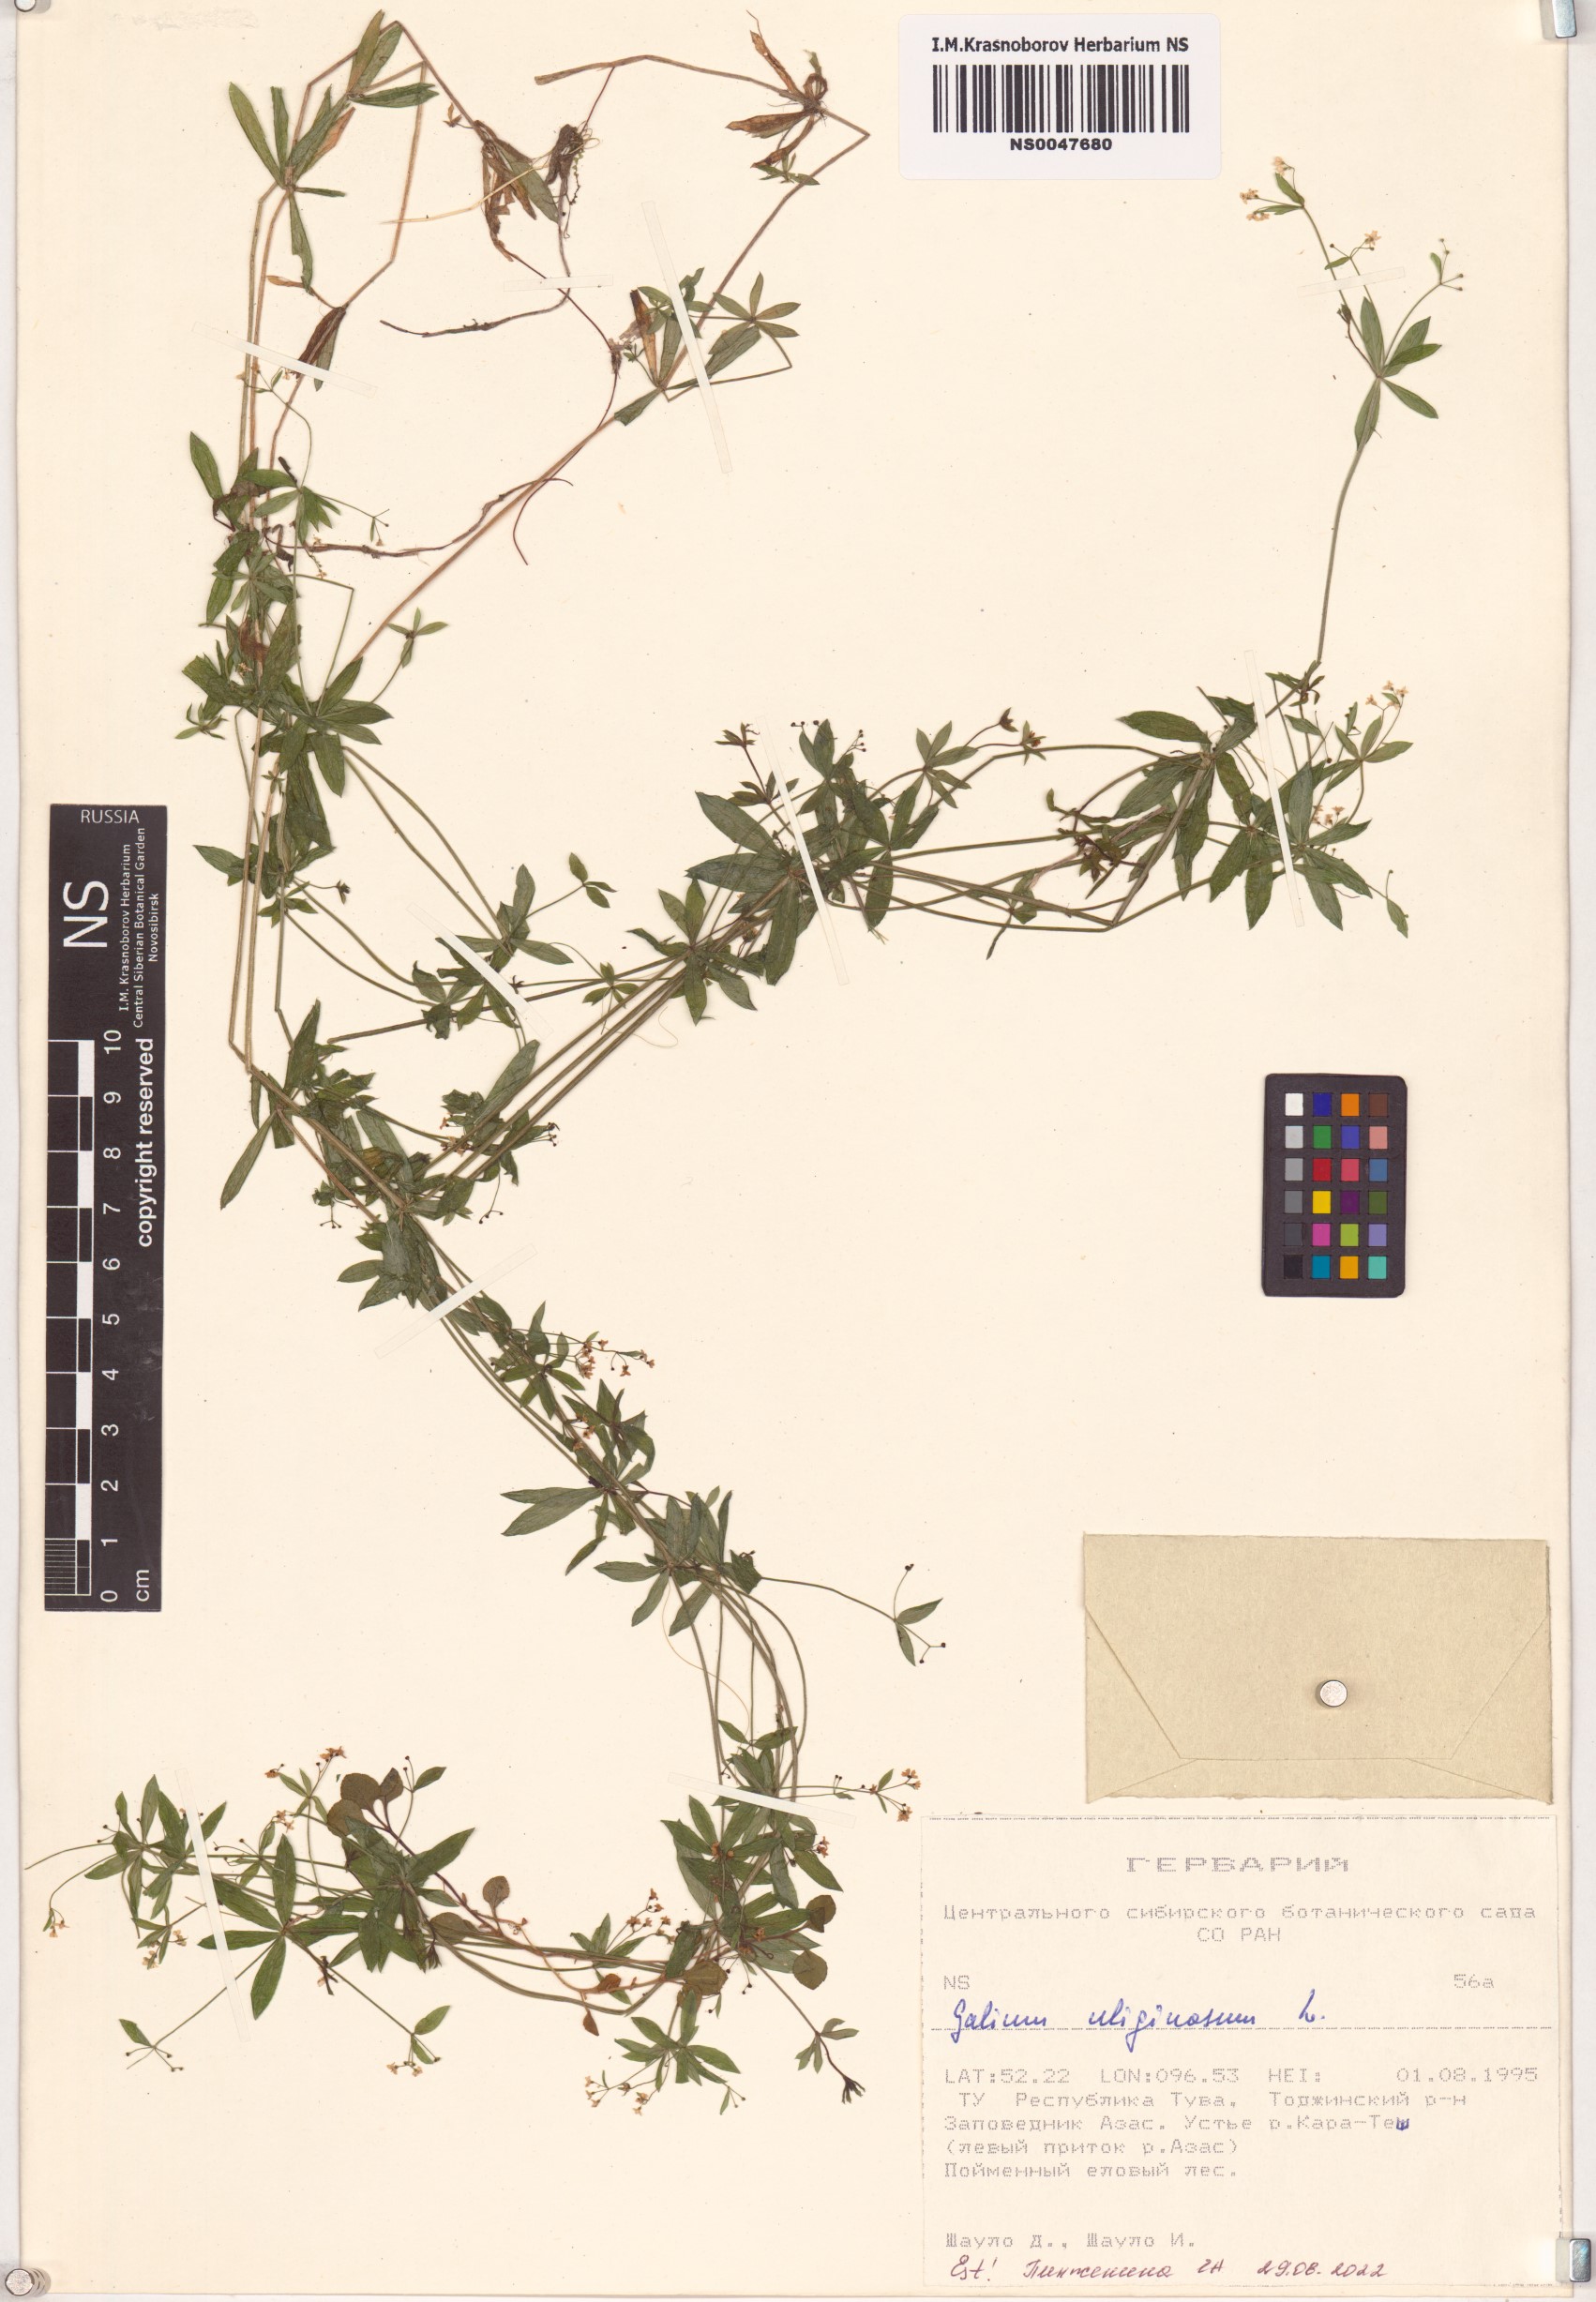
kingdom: Plantae
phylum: Tracheophyta
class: Magnoliopsida
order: Gentianales
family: Rubiaceae
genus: Galium
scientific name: Galium uliginosum
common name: Fen bedstraw
